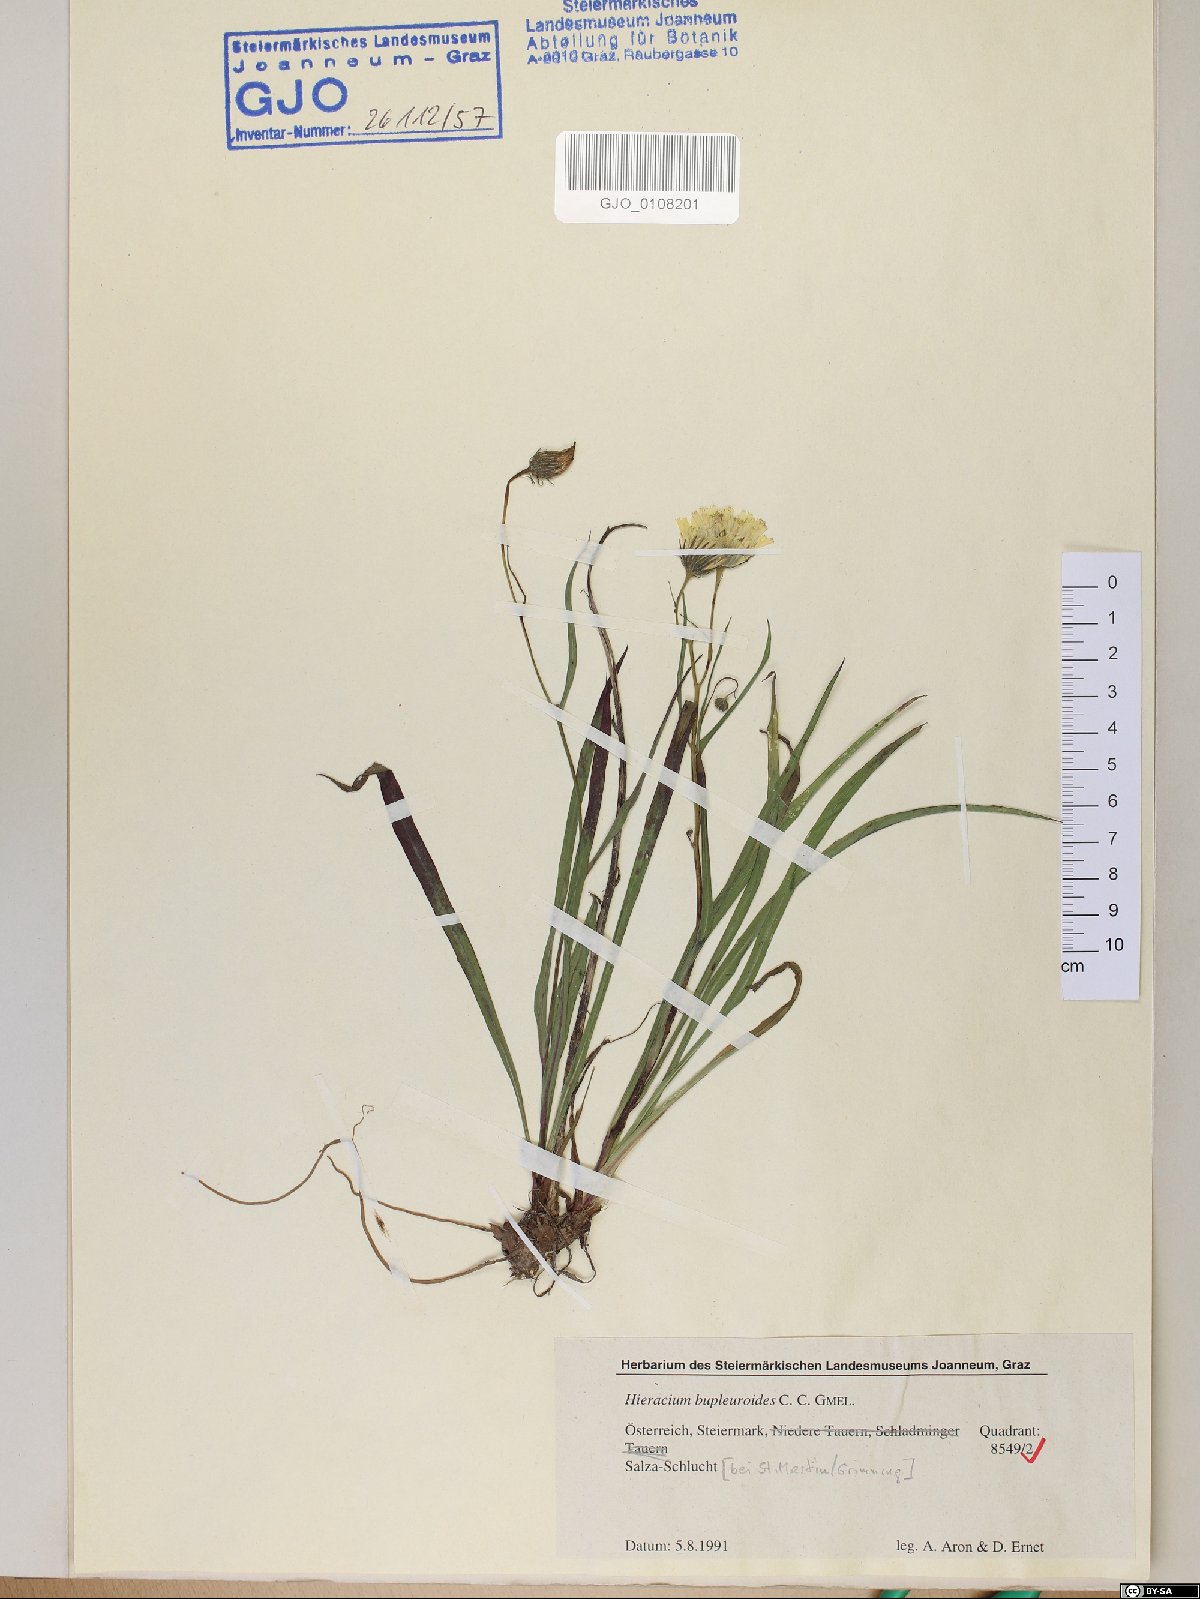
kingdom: Plantae
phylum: Tracheophyta
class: Magnoliopsida
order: Asterales
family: Asteraceae
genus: Hieracium
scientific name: Hieracium bupleuroides
